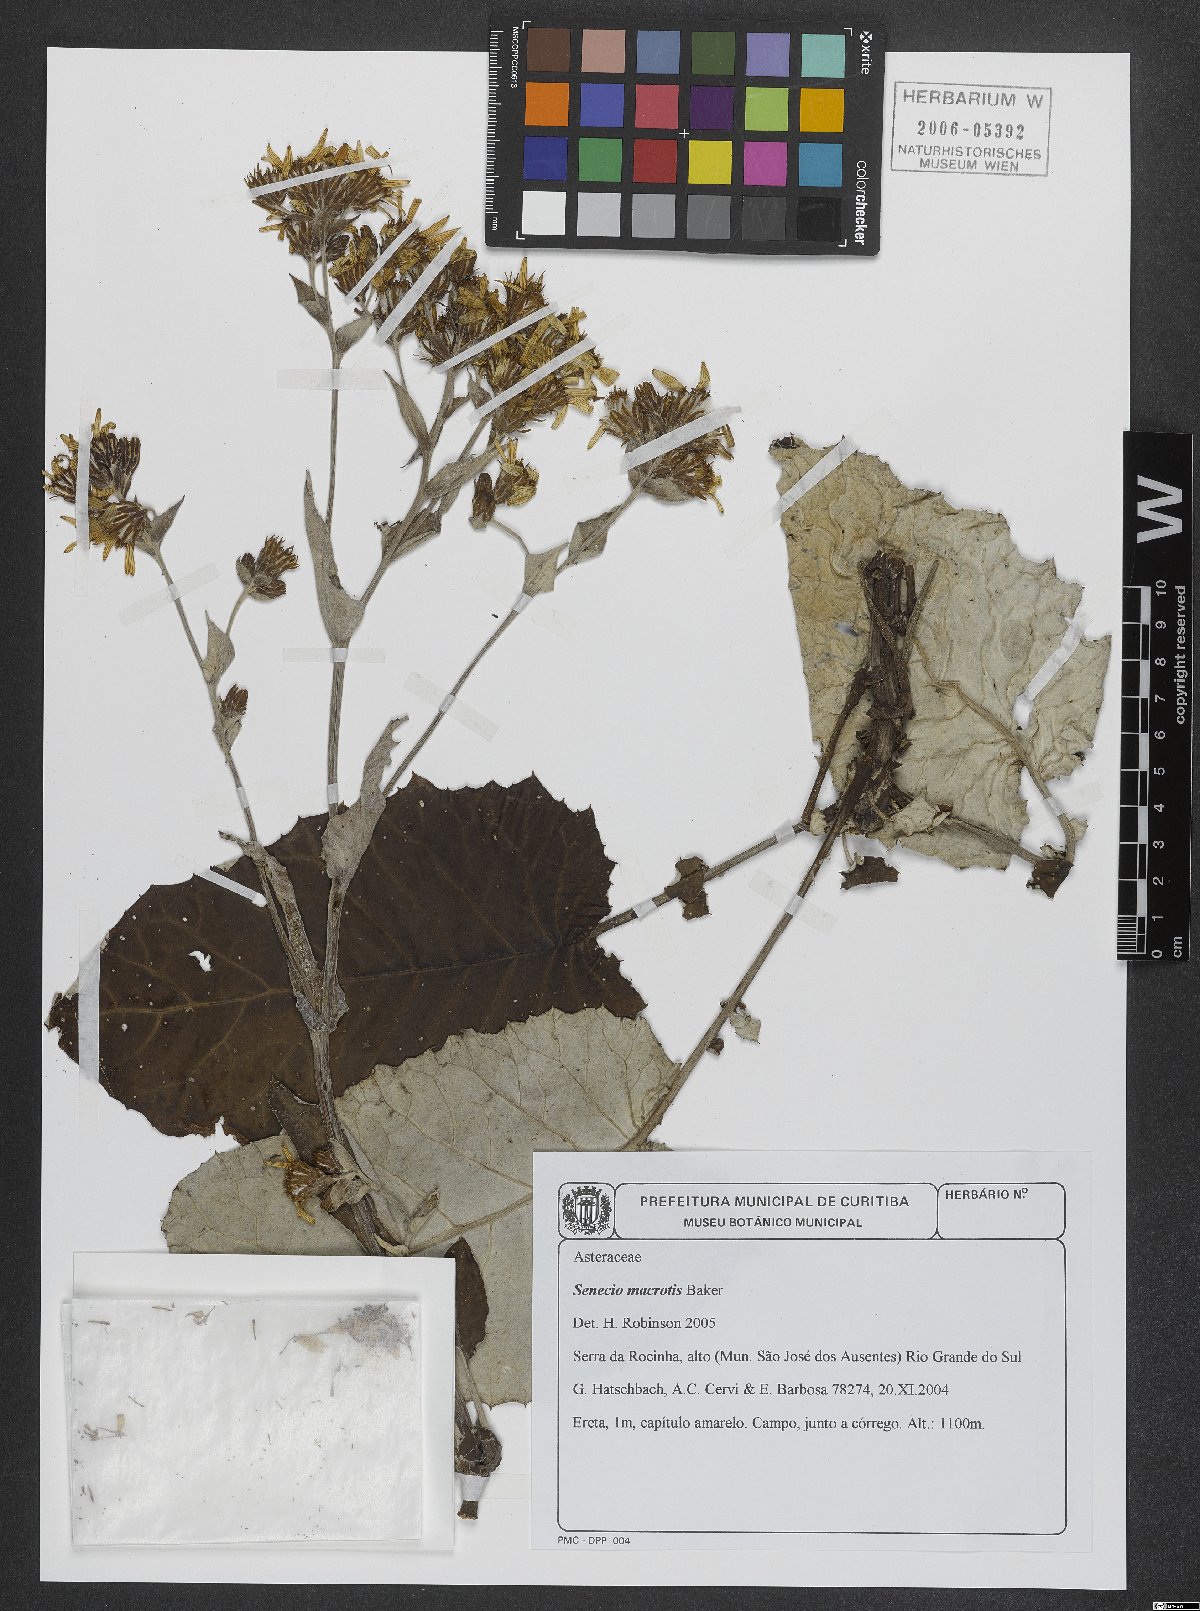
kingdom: Plantae
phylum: Tracheophyta
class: Magnoliopsida
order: Asterales
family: Asteraceae
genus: Senecio
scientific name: Senecio macrotis
